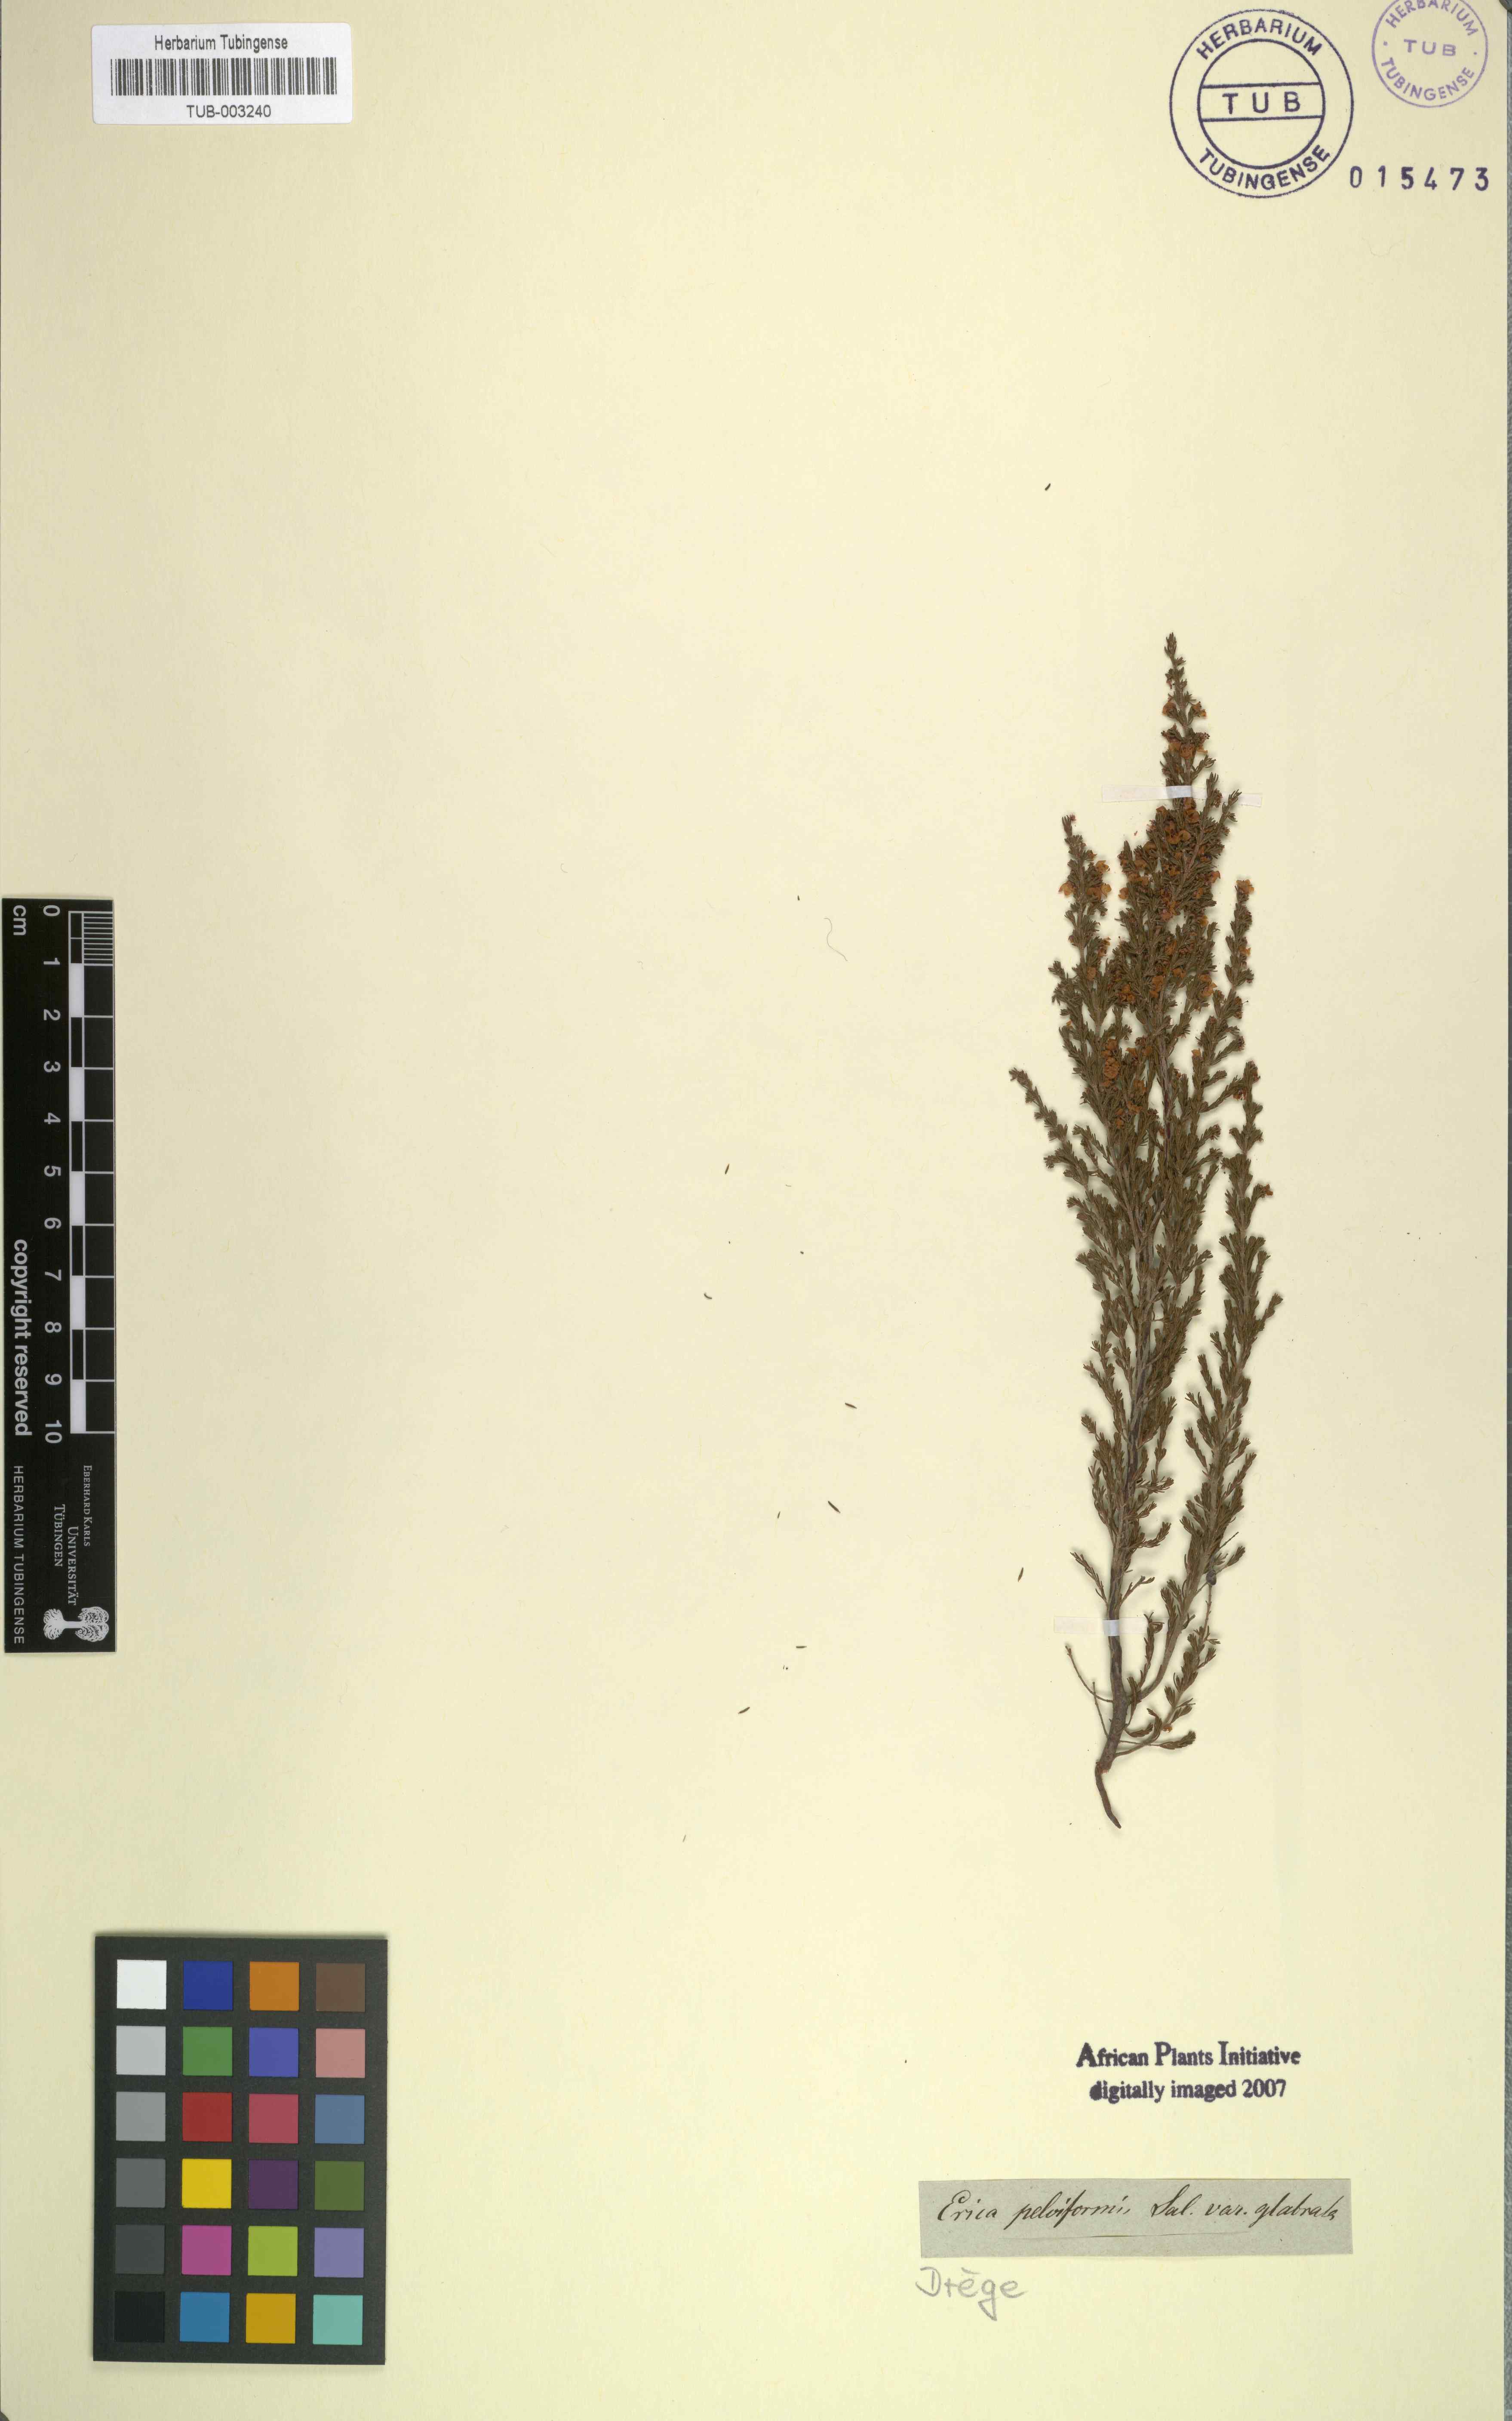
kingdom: Plantae
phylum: Tracheophyta
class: Magnoliopsida
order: Ericales
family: Ericaceae
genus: Erica
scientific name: Erica regerminans
